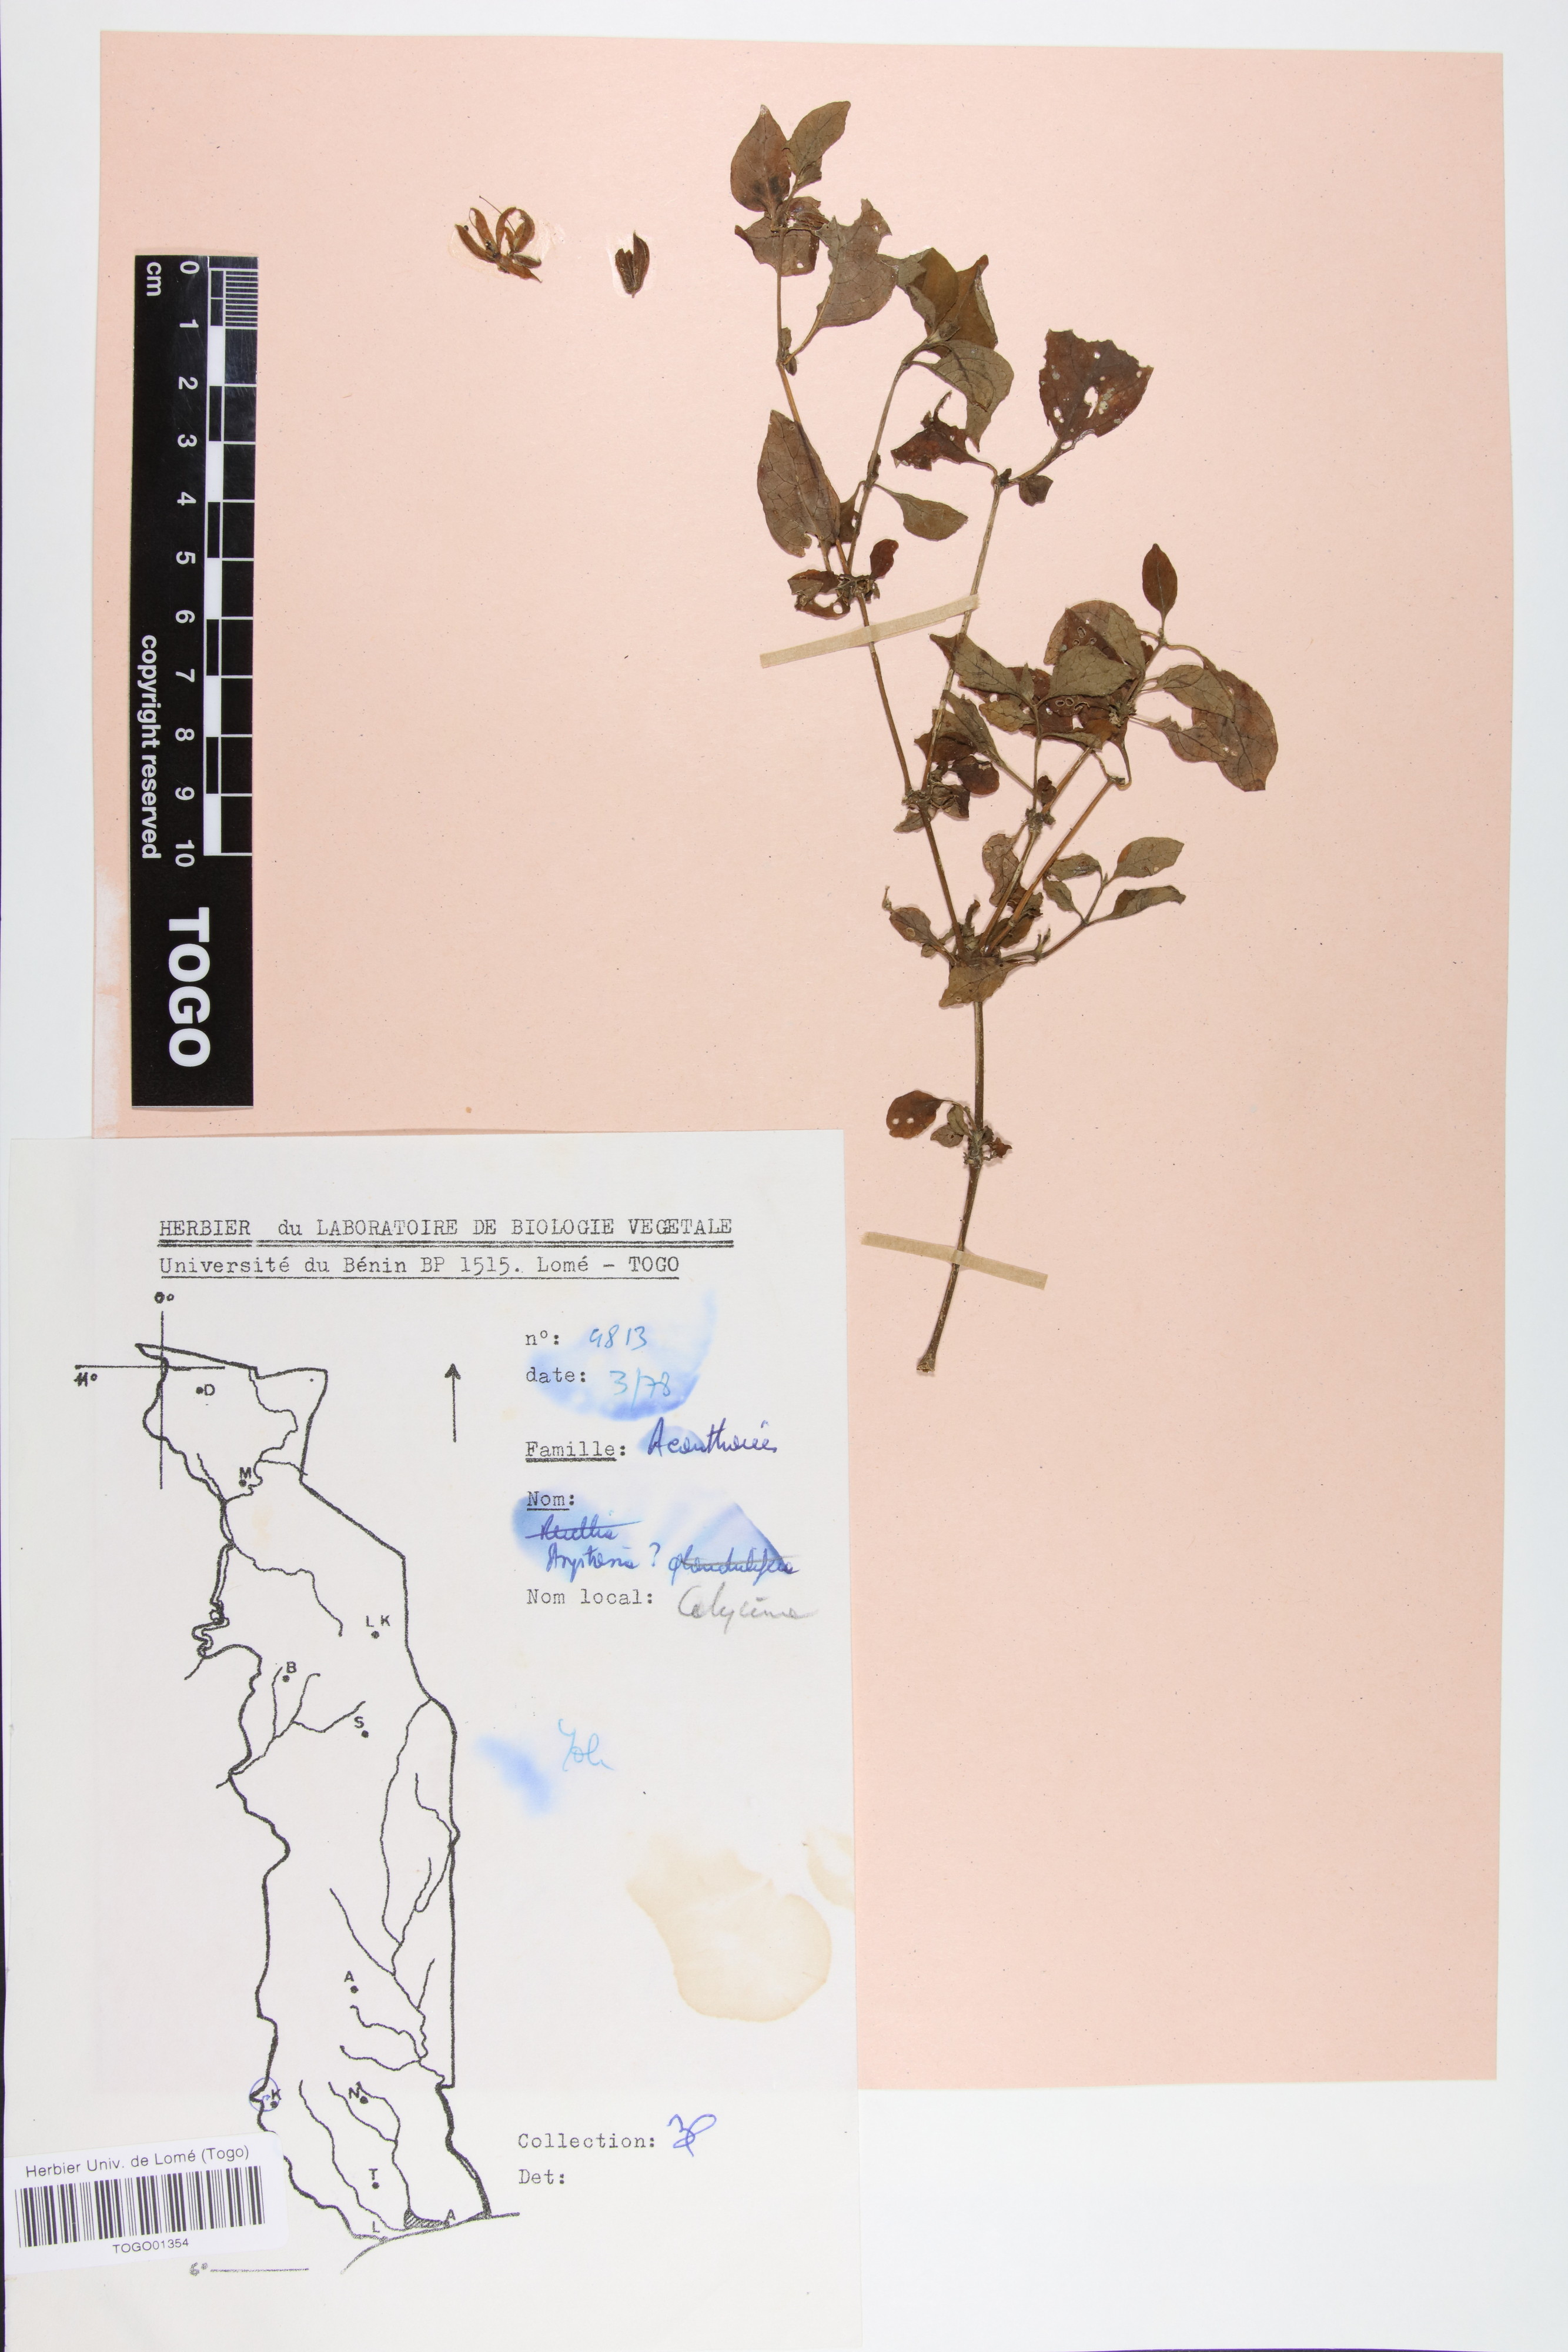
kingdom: Plantae
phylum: Tracheophyta
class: Magnoliopsida
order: Lamiales
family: Acanthaceae
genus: Asystasia
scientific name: Asystasia buettneri
